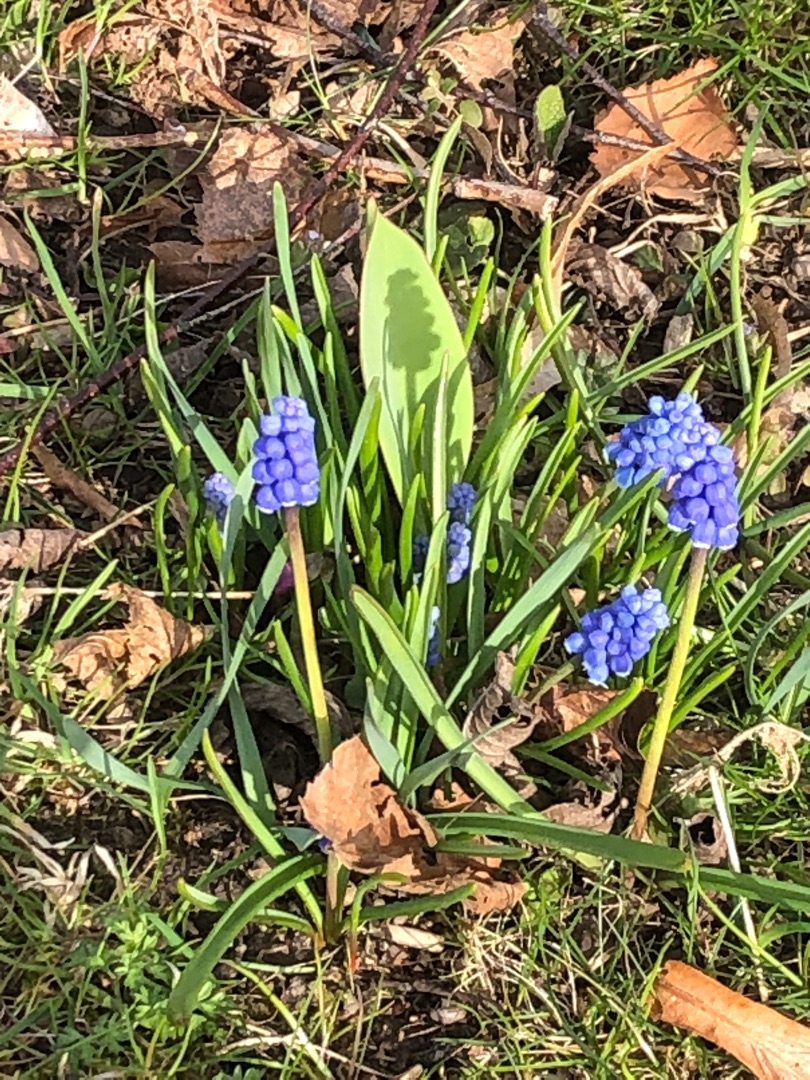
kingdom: Plantae
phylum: Tracheophyta
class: Liliopsida
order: Asparagales
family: Asparagaceae
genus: Muscari
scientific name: Muscari botryoides
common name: Perlehyacint
